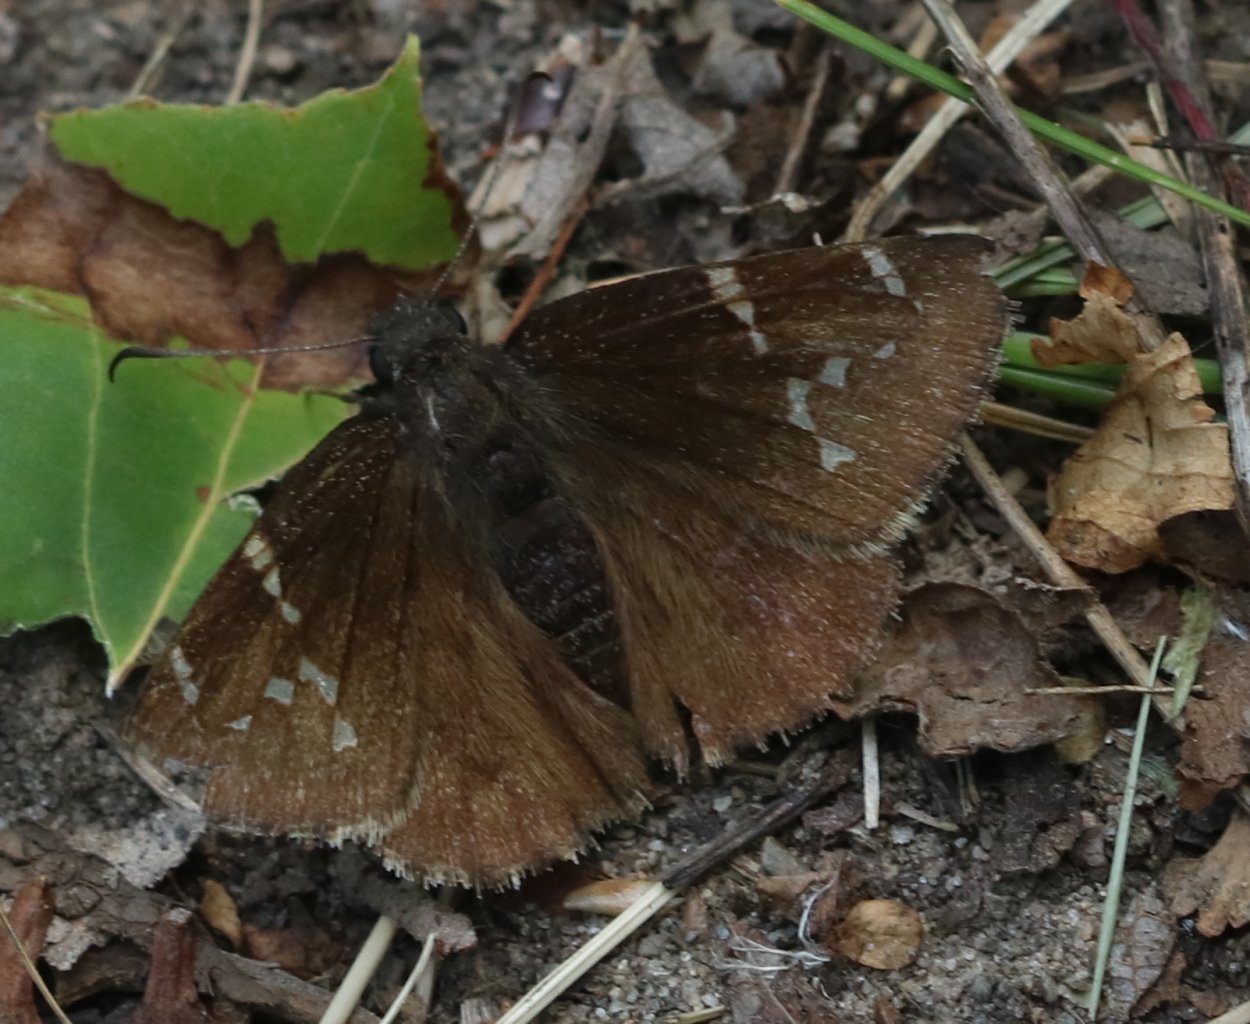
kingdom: Animalia
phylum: Arthropoda
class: Insecta
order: Lepidoptera
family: Hesperiidae
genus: Autochton
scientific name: Autochton
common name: Northern Cloudywing
